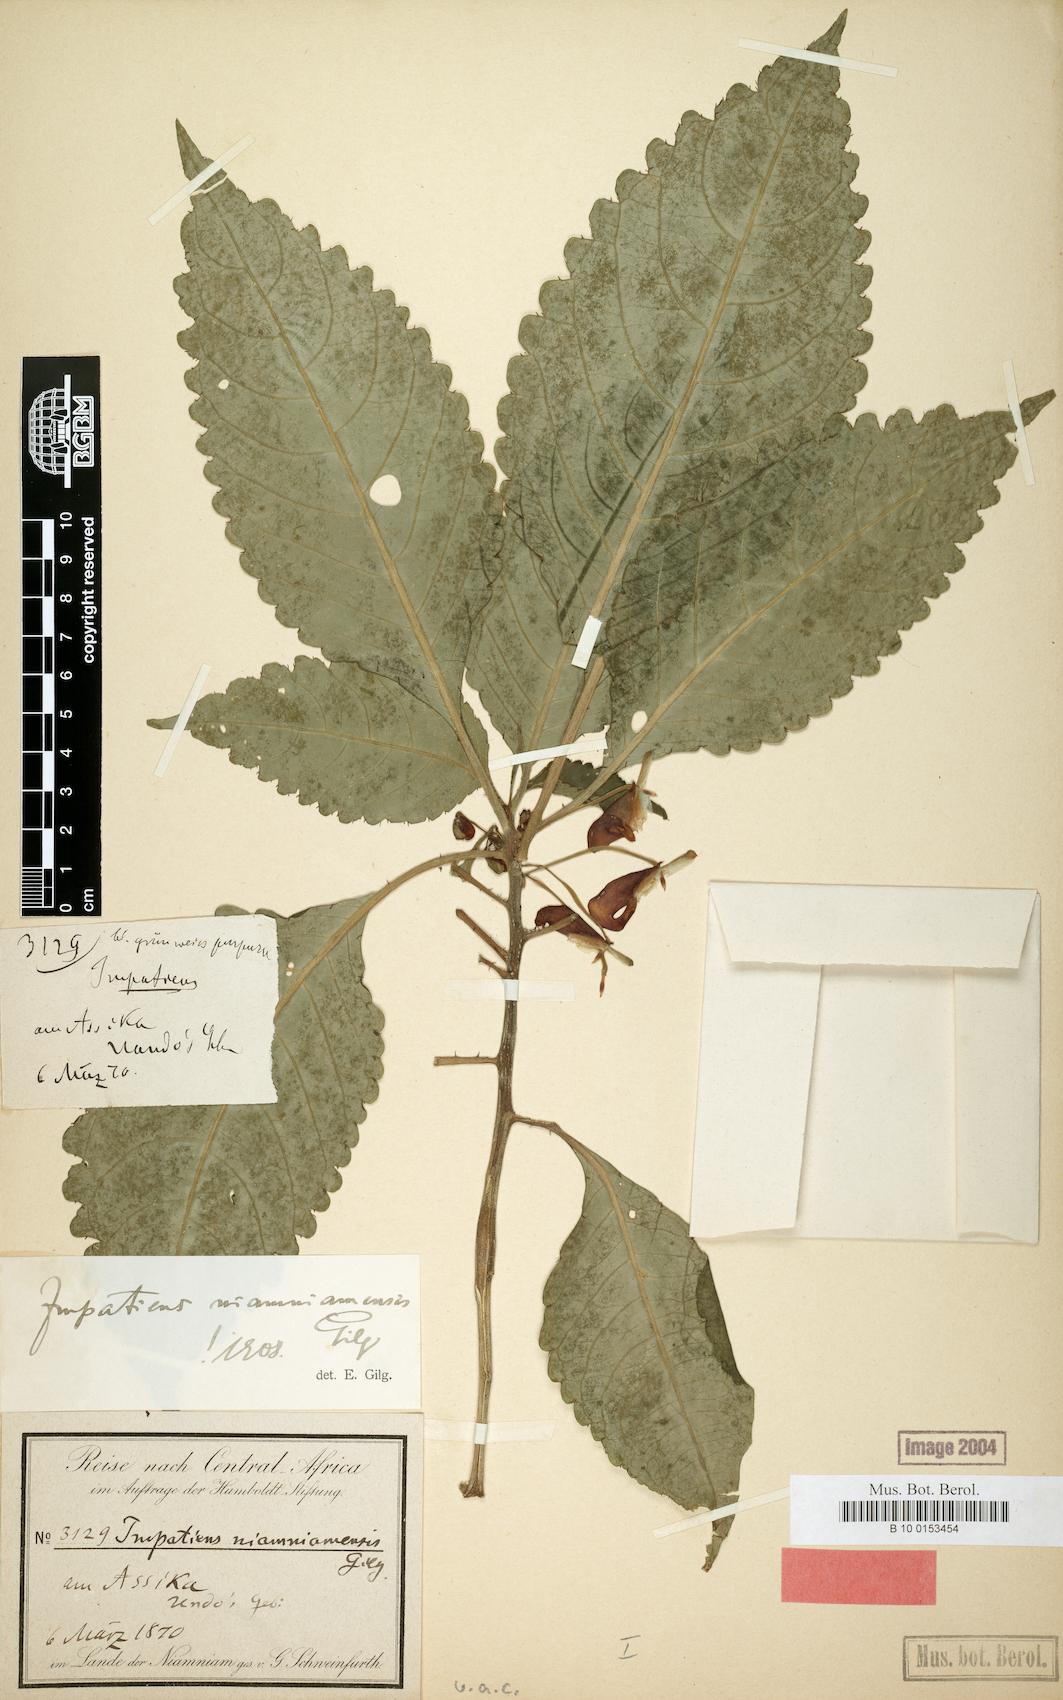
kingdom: Plantae
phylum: Tracheophyta
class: Magnoliopsida
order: Ericales
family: Balsaminaceae
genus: Impatiens
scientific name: Impatiens niamniamensis
